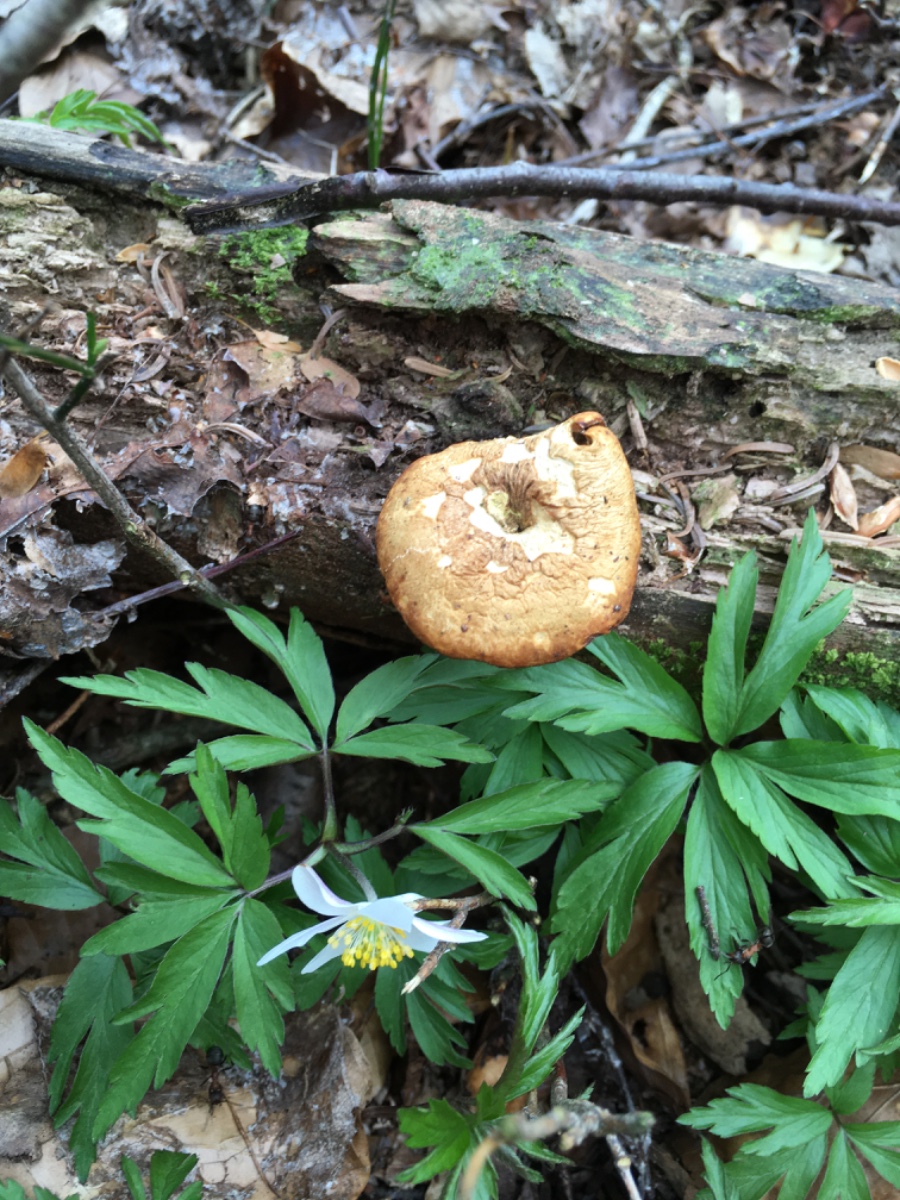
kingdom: Fungi
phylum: Basidiomycota
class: Agaricomycetes
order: Polyporales
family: Polyporaceae
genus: Cerioporus
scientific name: Cerioporus varius
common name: foranderlig stilkporesvamp
